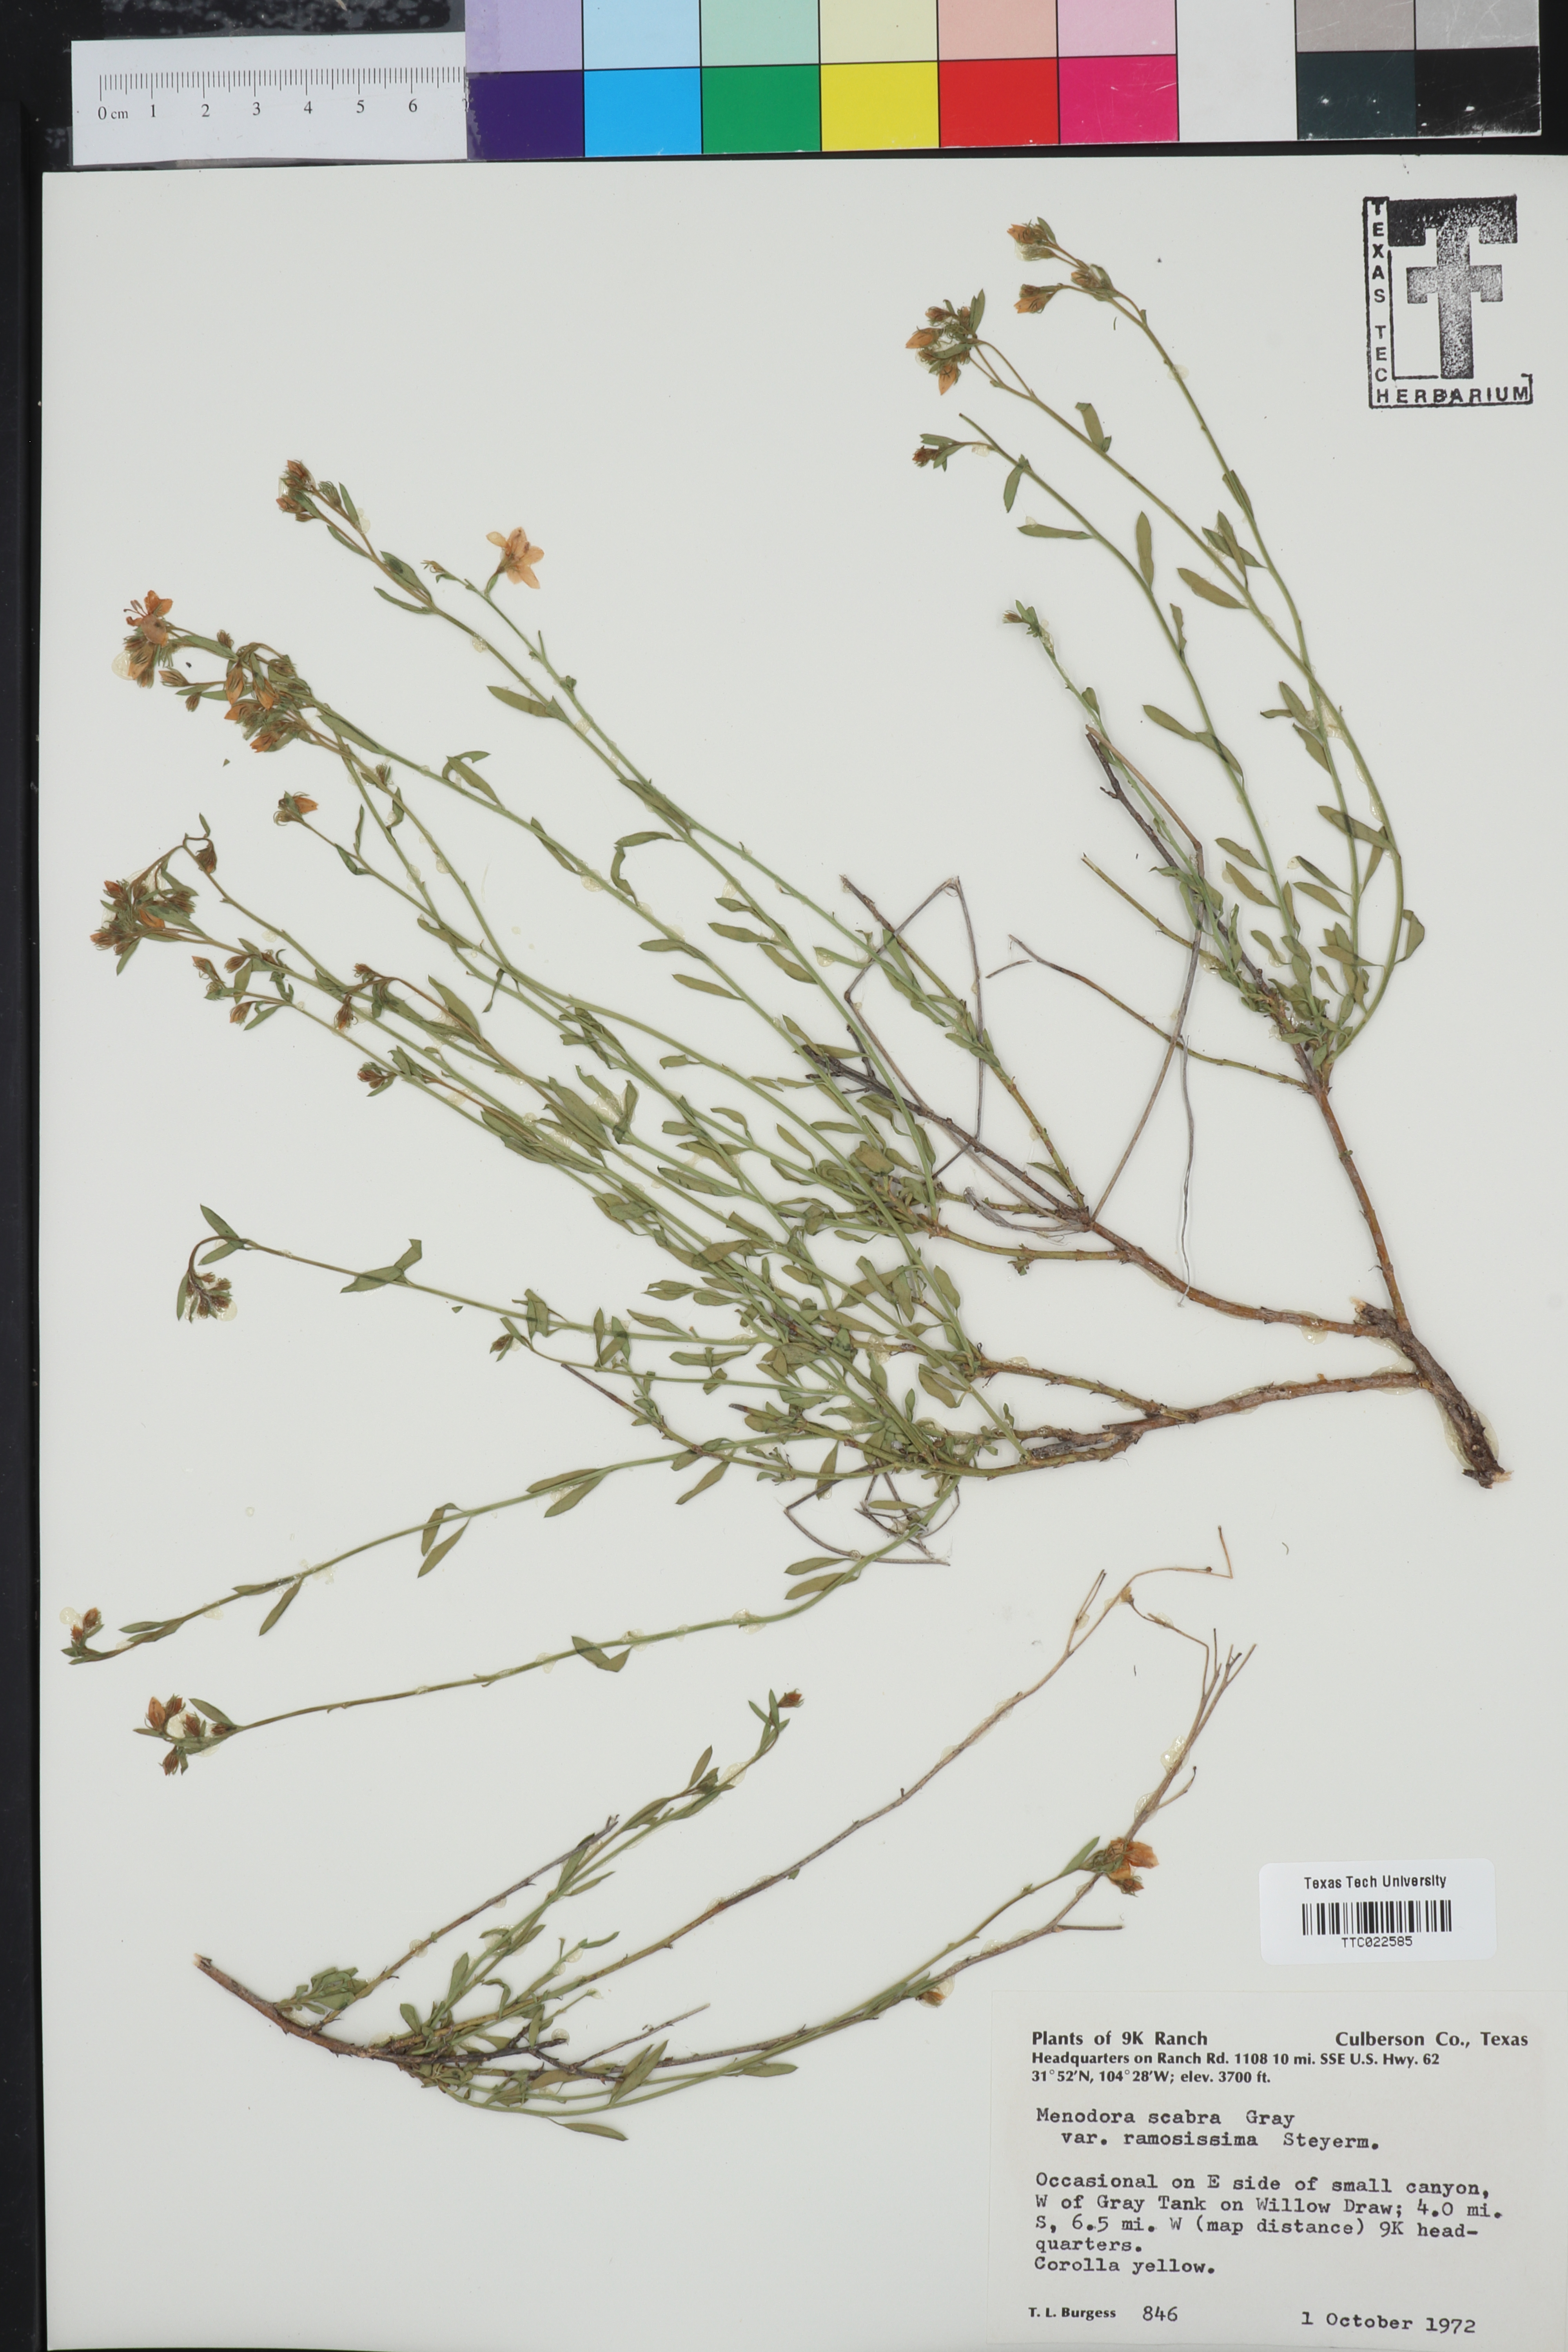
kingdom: Plantae
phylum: Tracheophyta
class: Magnoliopsida
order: Lamiales
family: Oleaceae
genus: Menodora
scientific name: Menodora scabra
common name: Rough menodora
